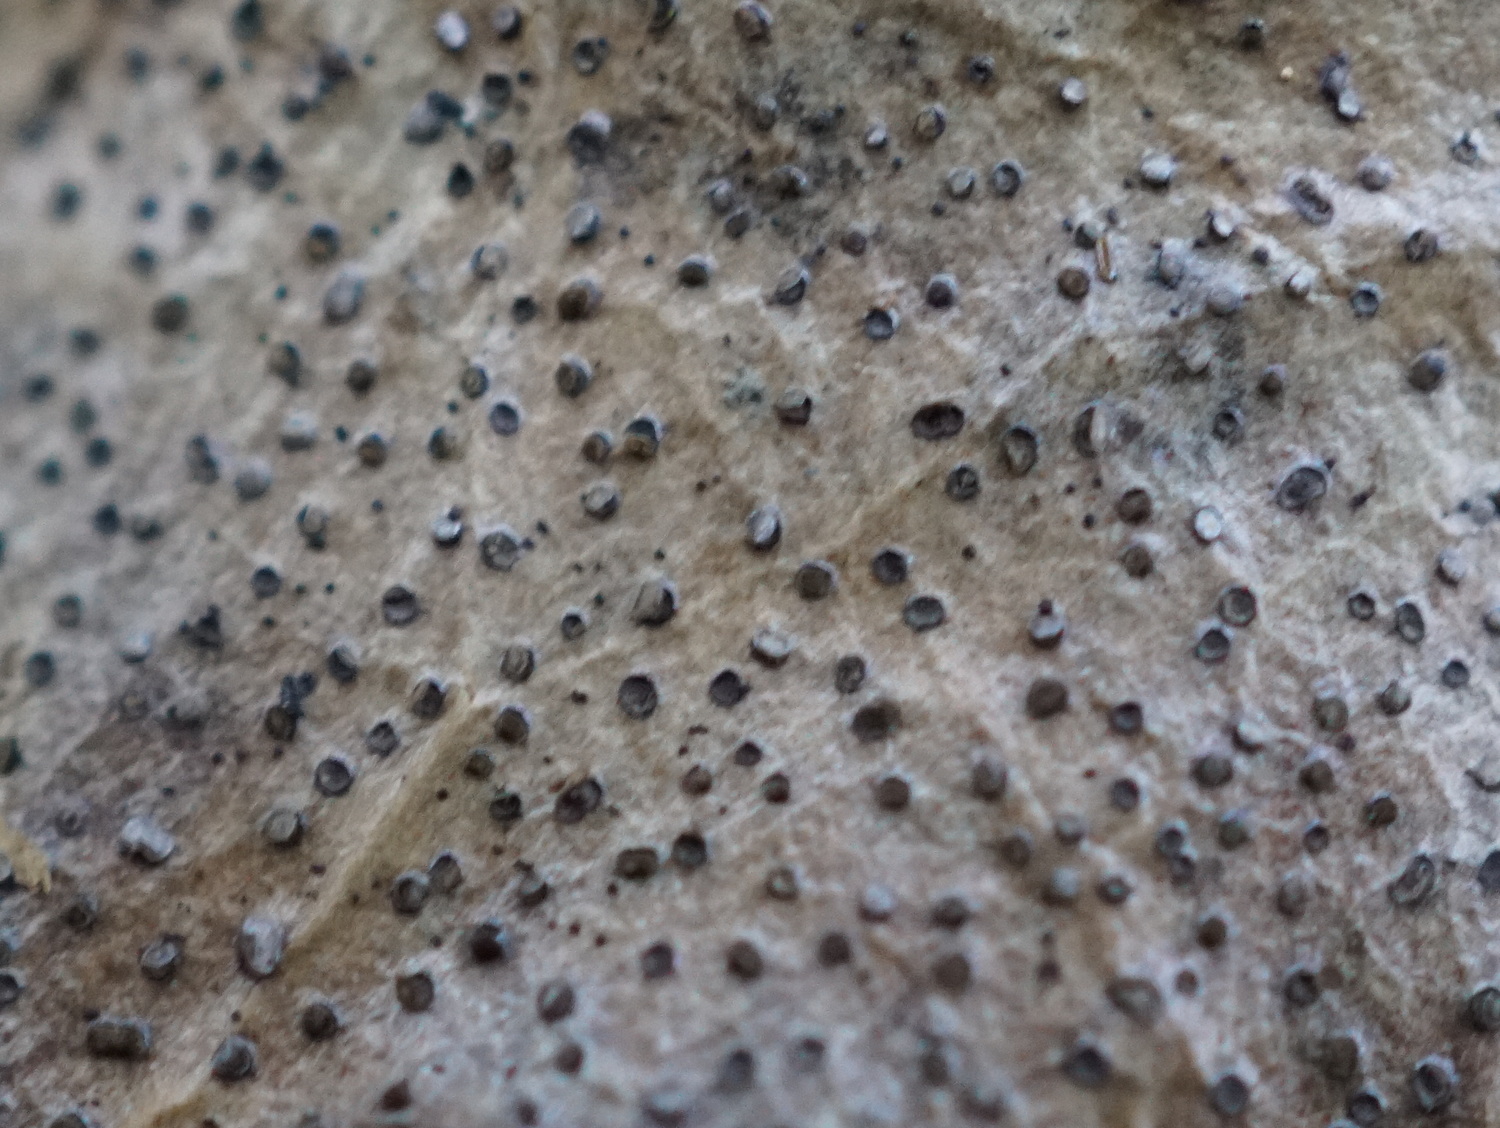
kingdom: Fungi
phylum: Ascomycota
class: Leotiomycetes
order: Helotiales
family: Cenangiaceae
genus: Trochila
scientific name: Trochila ilicina
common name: kristtorn-lågskive
